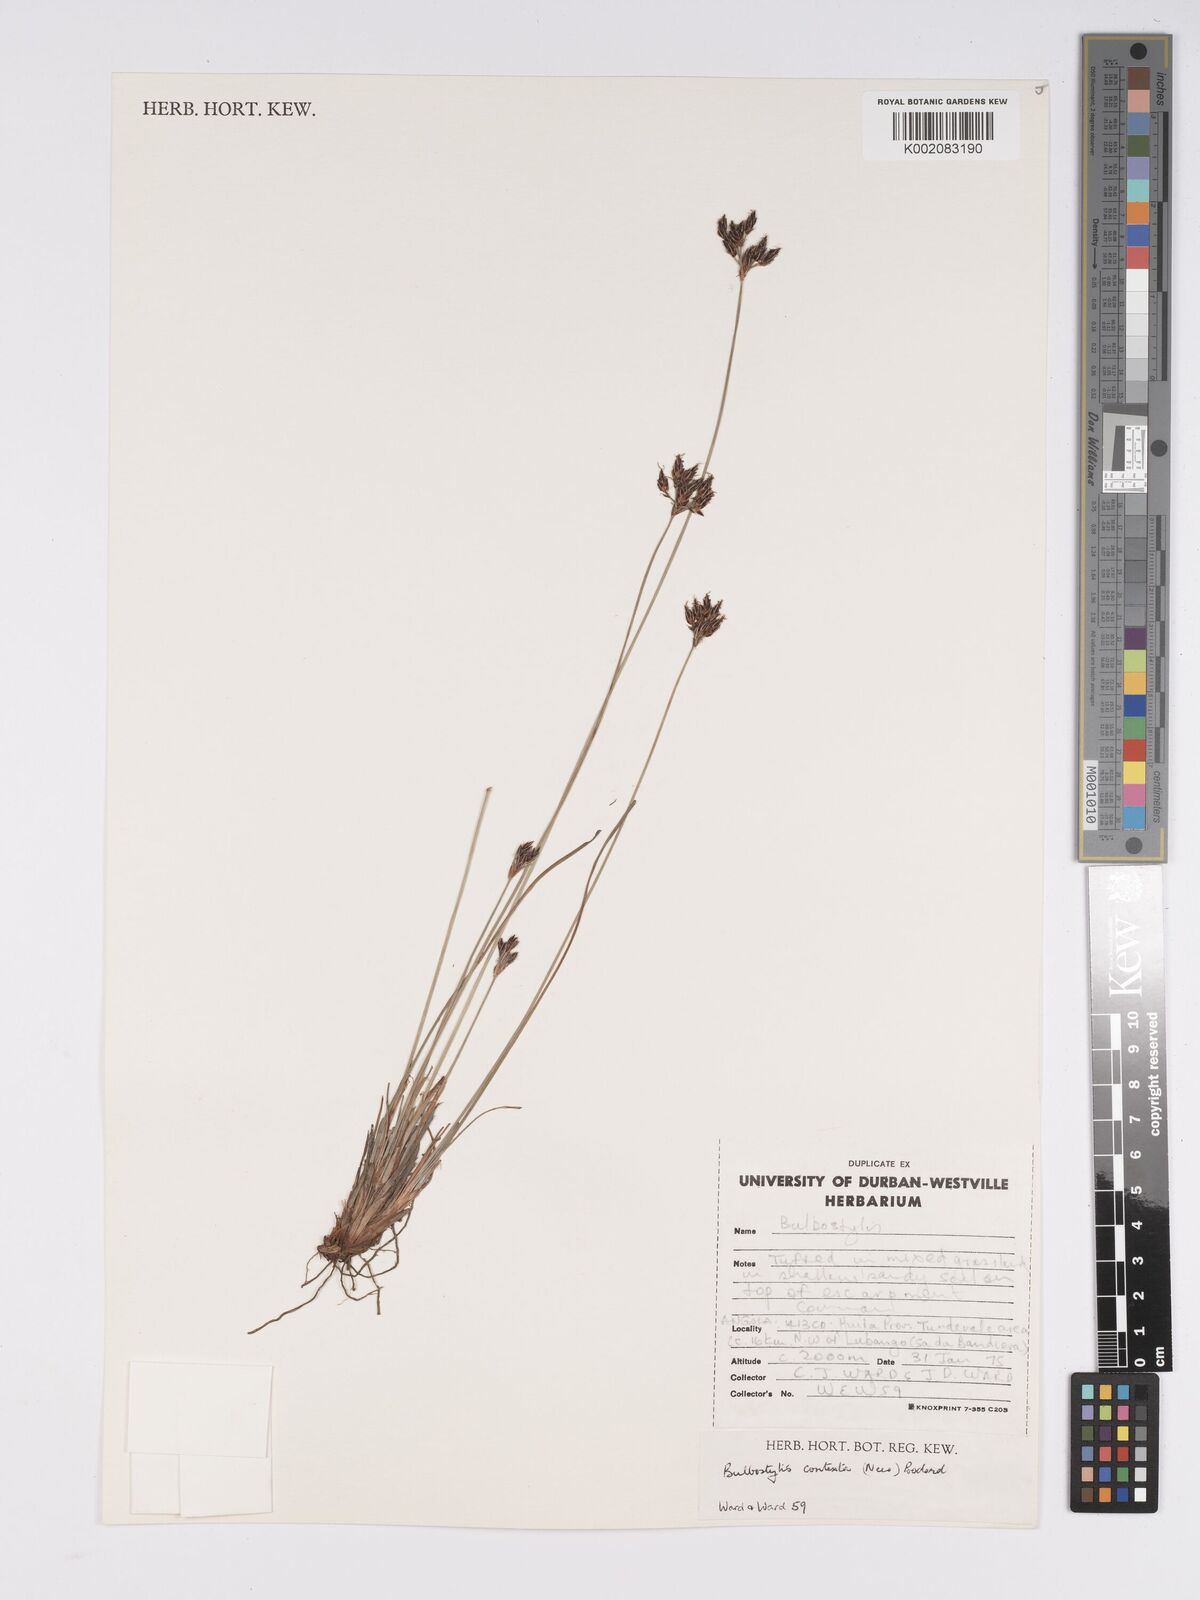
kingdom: Plantae
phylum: Tracheophyta
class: Liliopsida
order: Poales
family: Cyperaceae
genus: Bulbostylis
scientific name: Bulbostylis contexta
